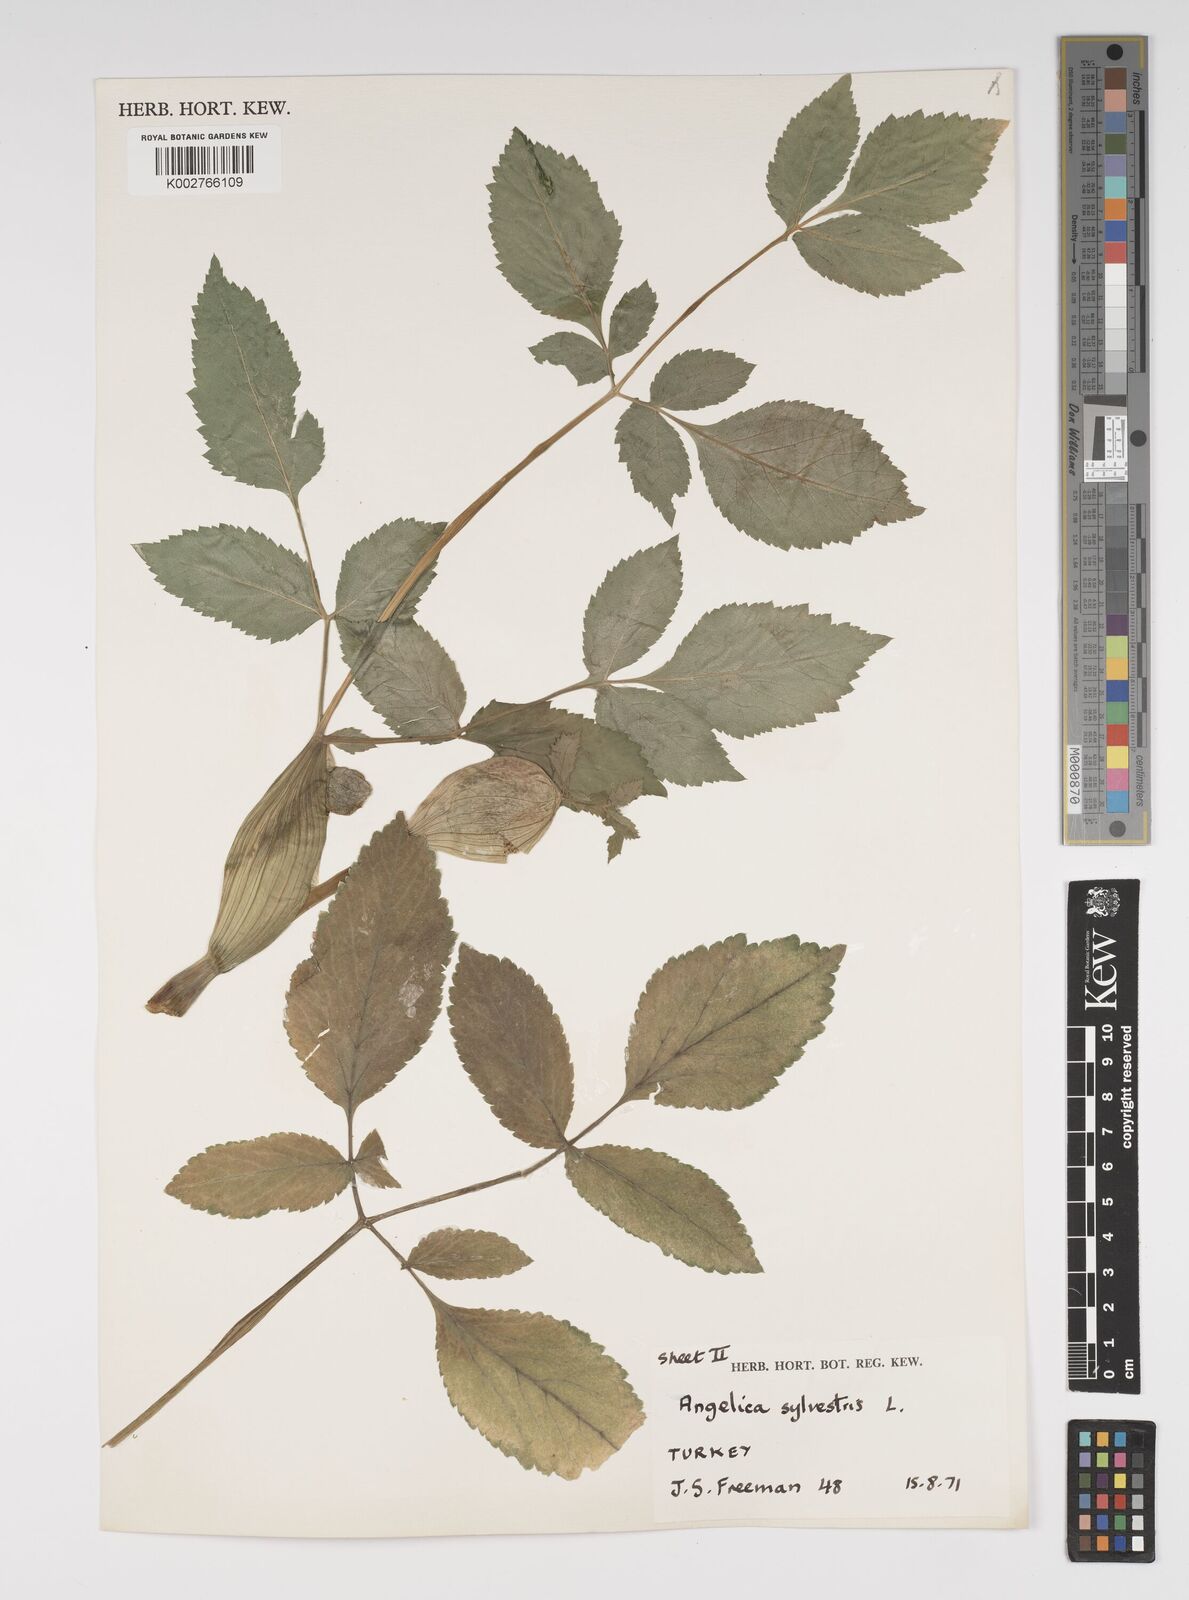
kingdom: Plantae
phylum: Tracheophyta
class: Magnoliopsida
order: Apiales
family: Apiaceae
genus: Angelica
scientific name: Angelica sylvestris
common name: Wild angelica
